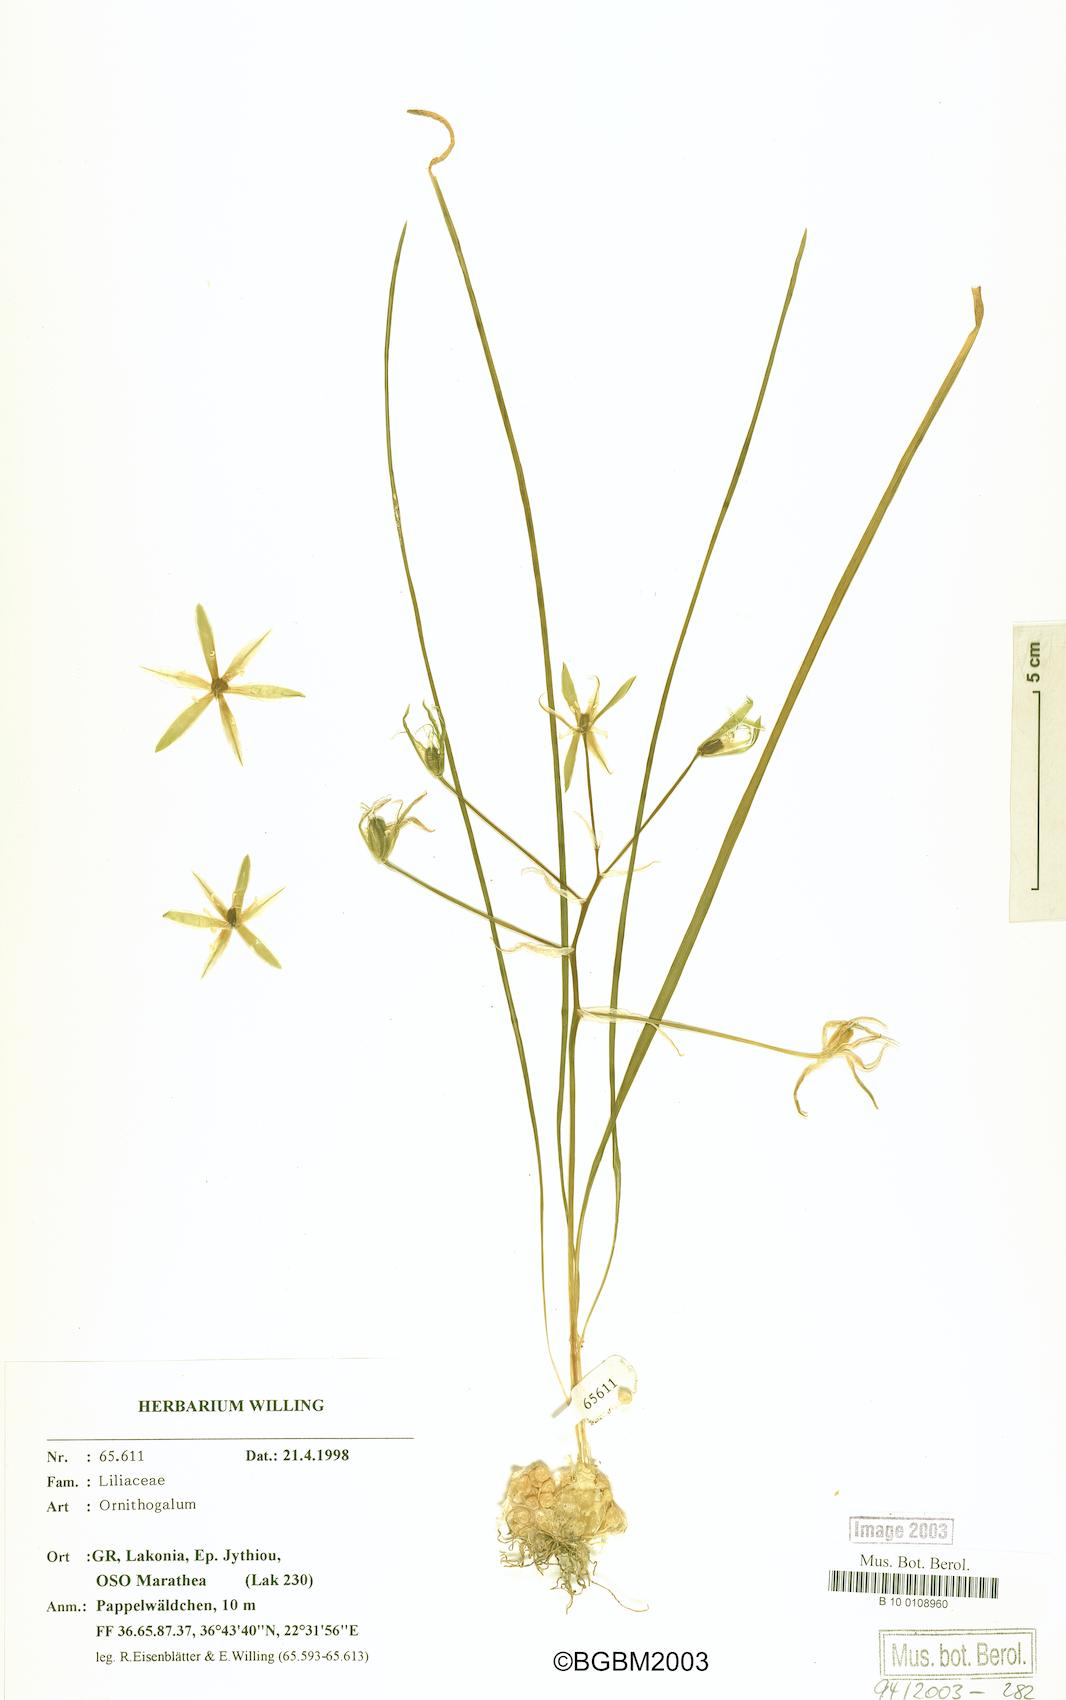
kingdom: Plantae
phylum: Tracheophyta
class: Liliopsida
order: Asparagales
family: Asparagaceae
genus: Ornithogalum
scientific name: Ornithogalum
